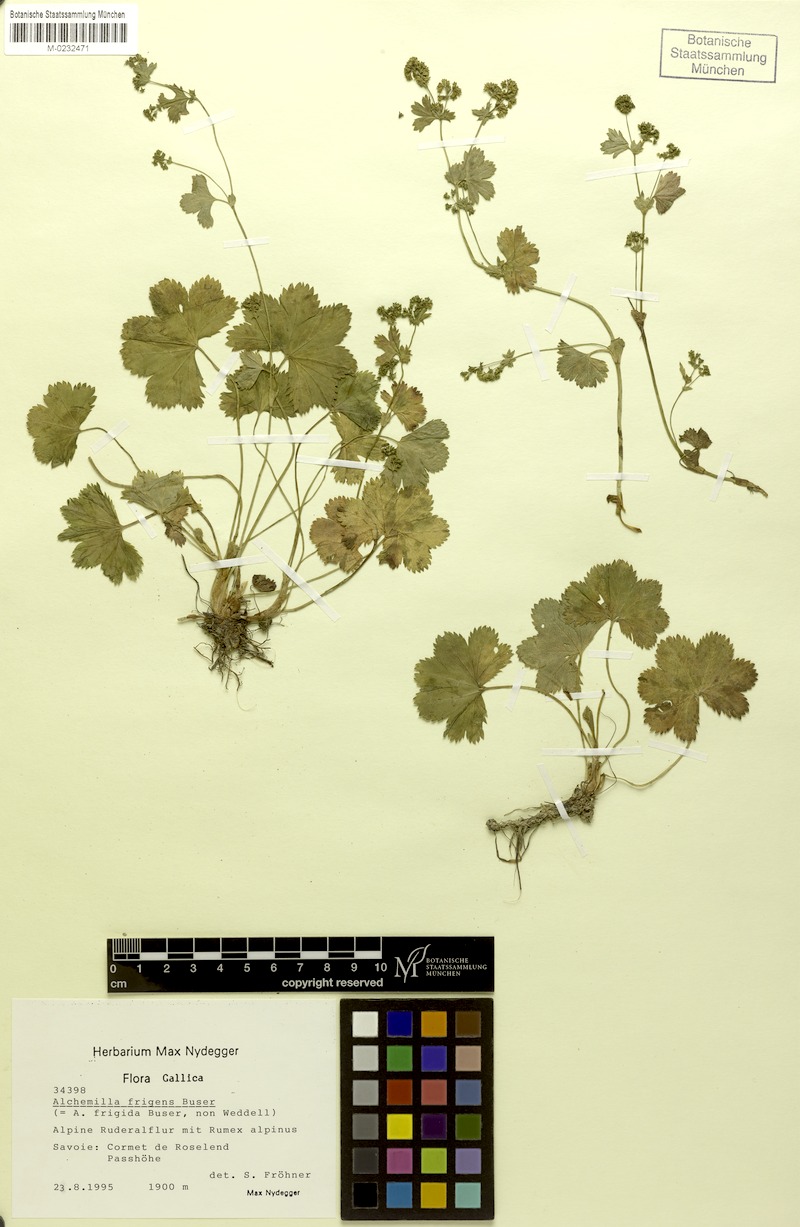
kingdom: Plantae
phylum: Tracheophyta
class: Magnoliopsida
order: Rosales
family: Rosaceae
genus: Alchemilla
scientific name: Alchemilla frigens
